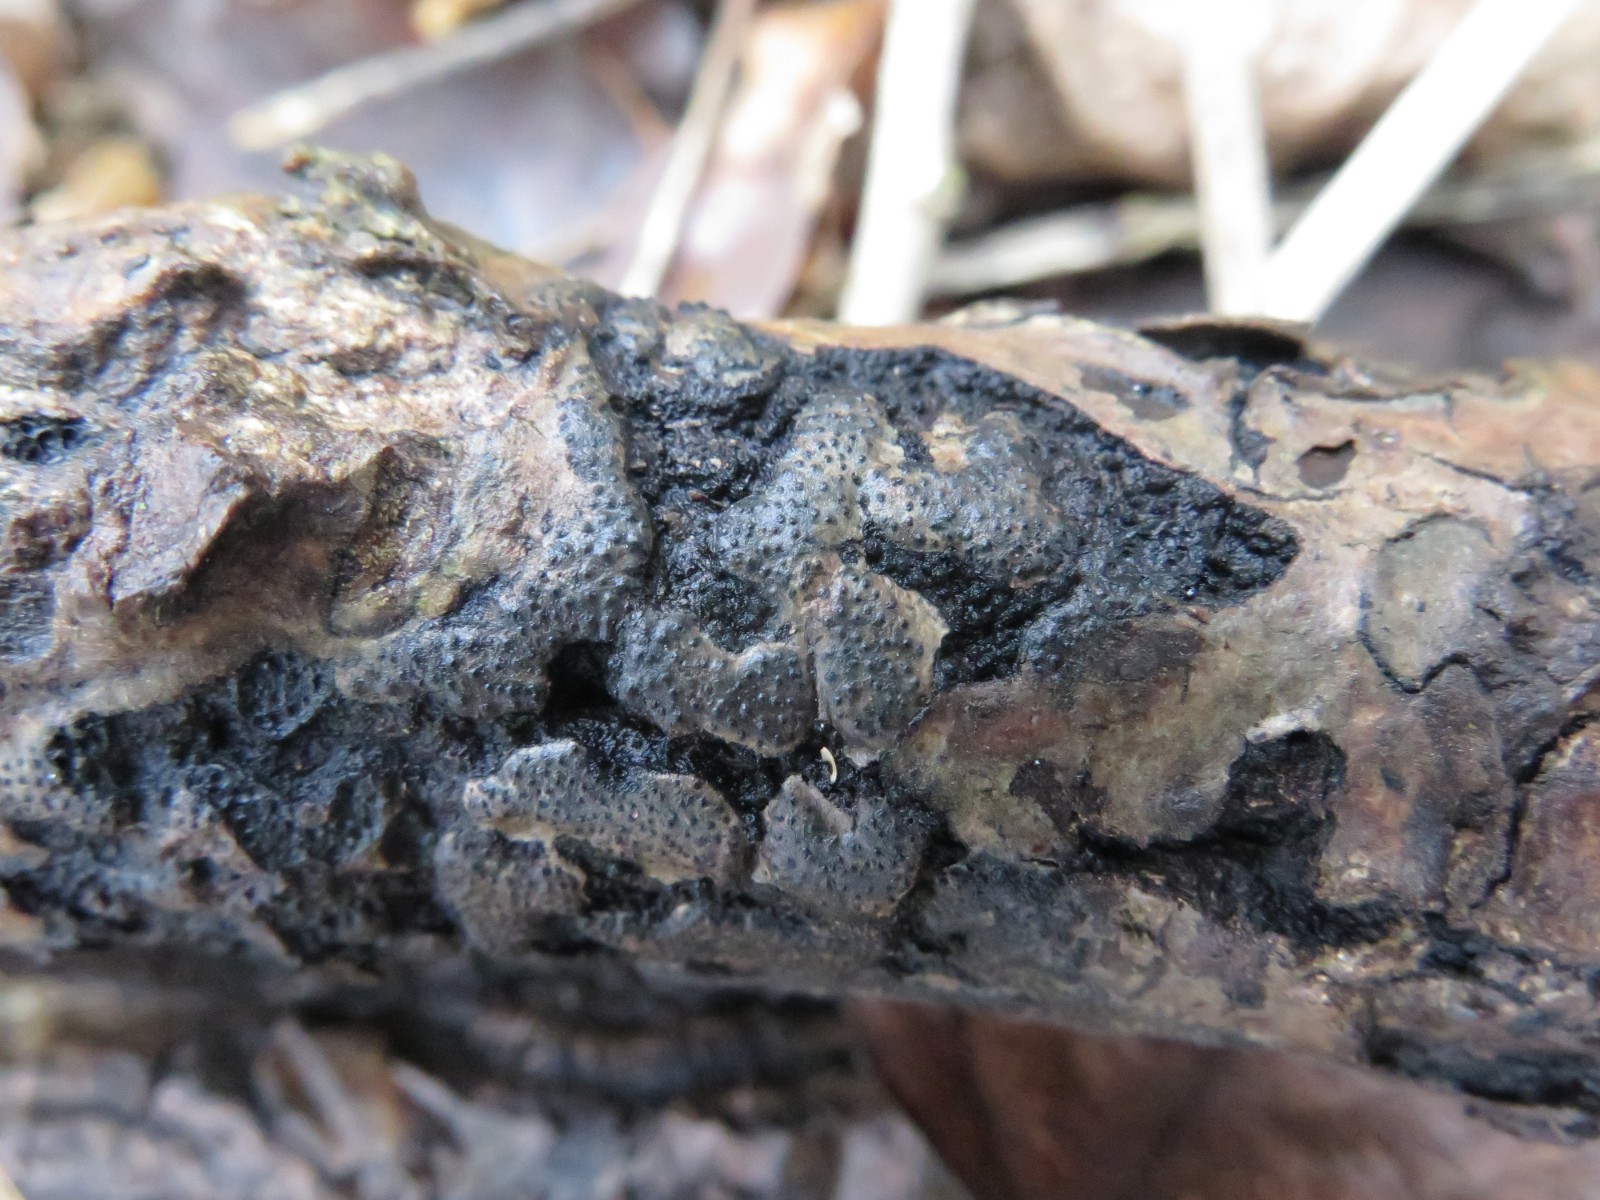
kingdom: Fungi
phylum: Ascomycota
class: Sordariomycetes
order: Diaporthales
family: Valsaceae
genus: Cytospora
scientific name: Cytospora populina
